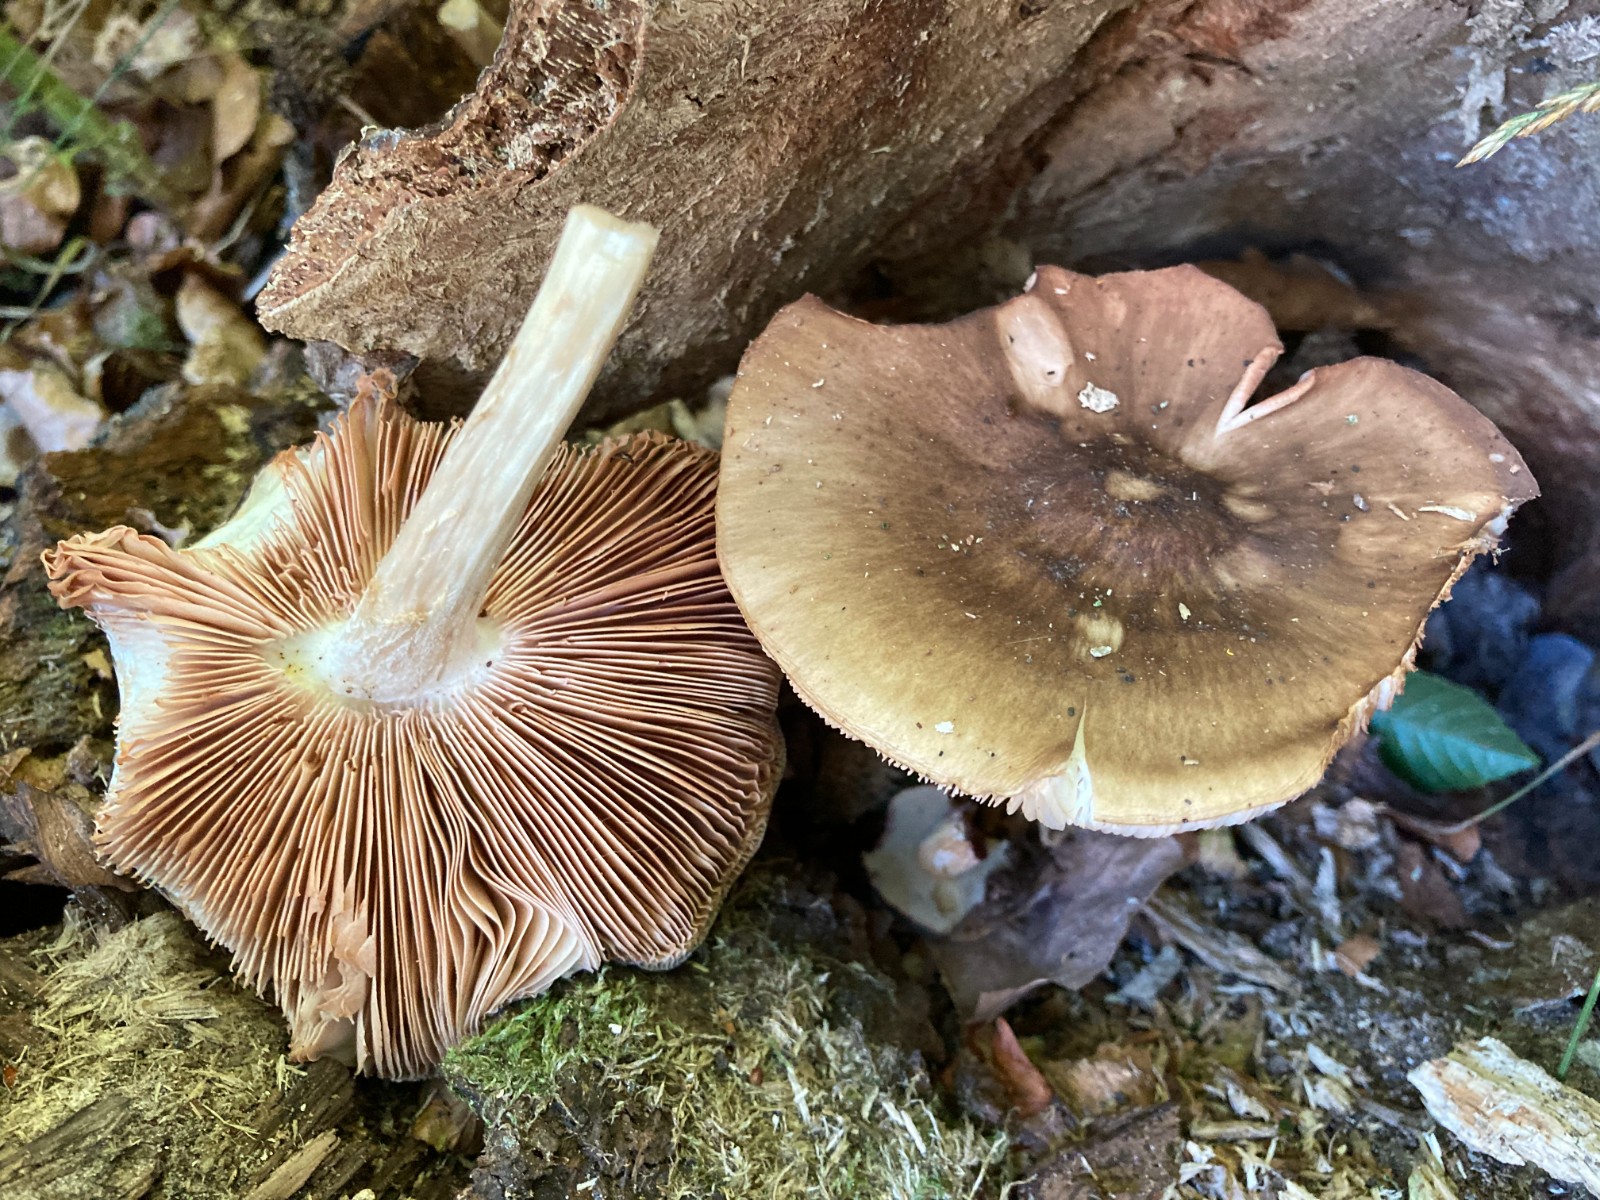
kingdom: Fungi
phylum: Basidiomycota
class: Agaricomycetes
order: Agaricales
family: Pluteaceae
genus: Pluteus
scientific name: Pluteus cervinus
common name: sodfarvet skærmhat
